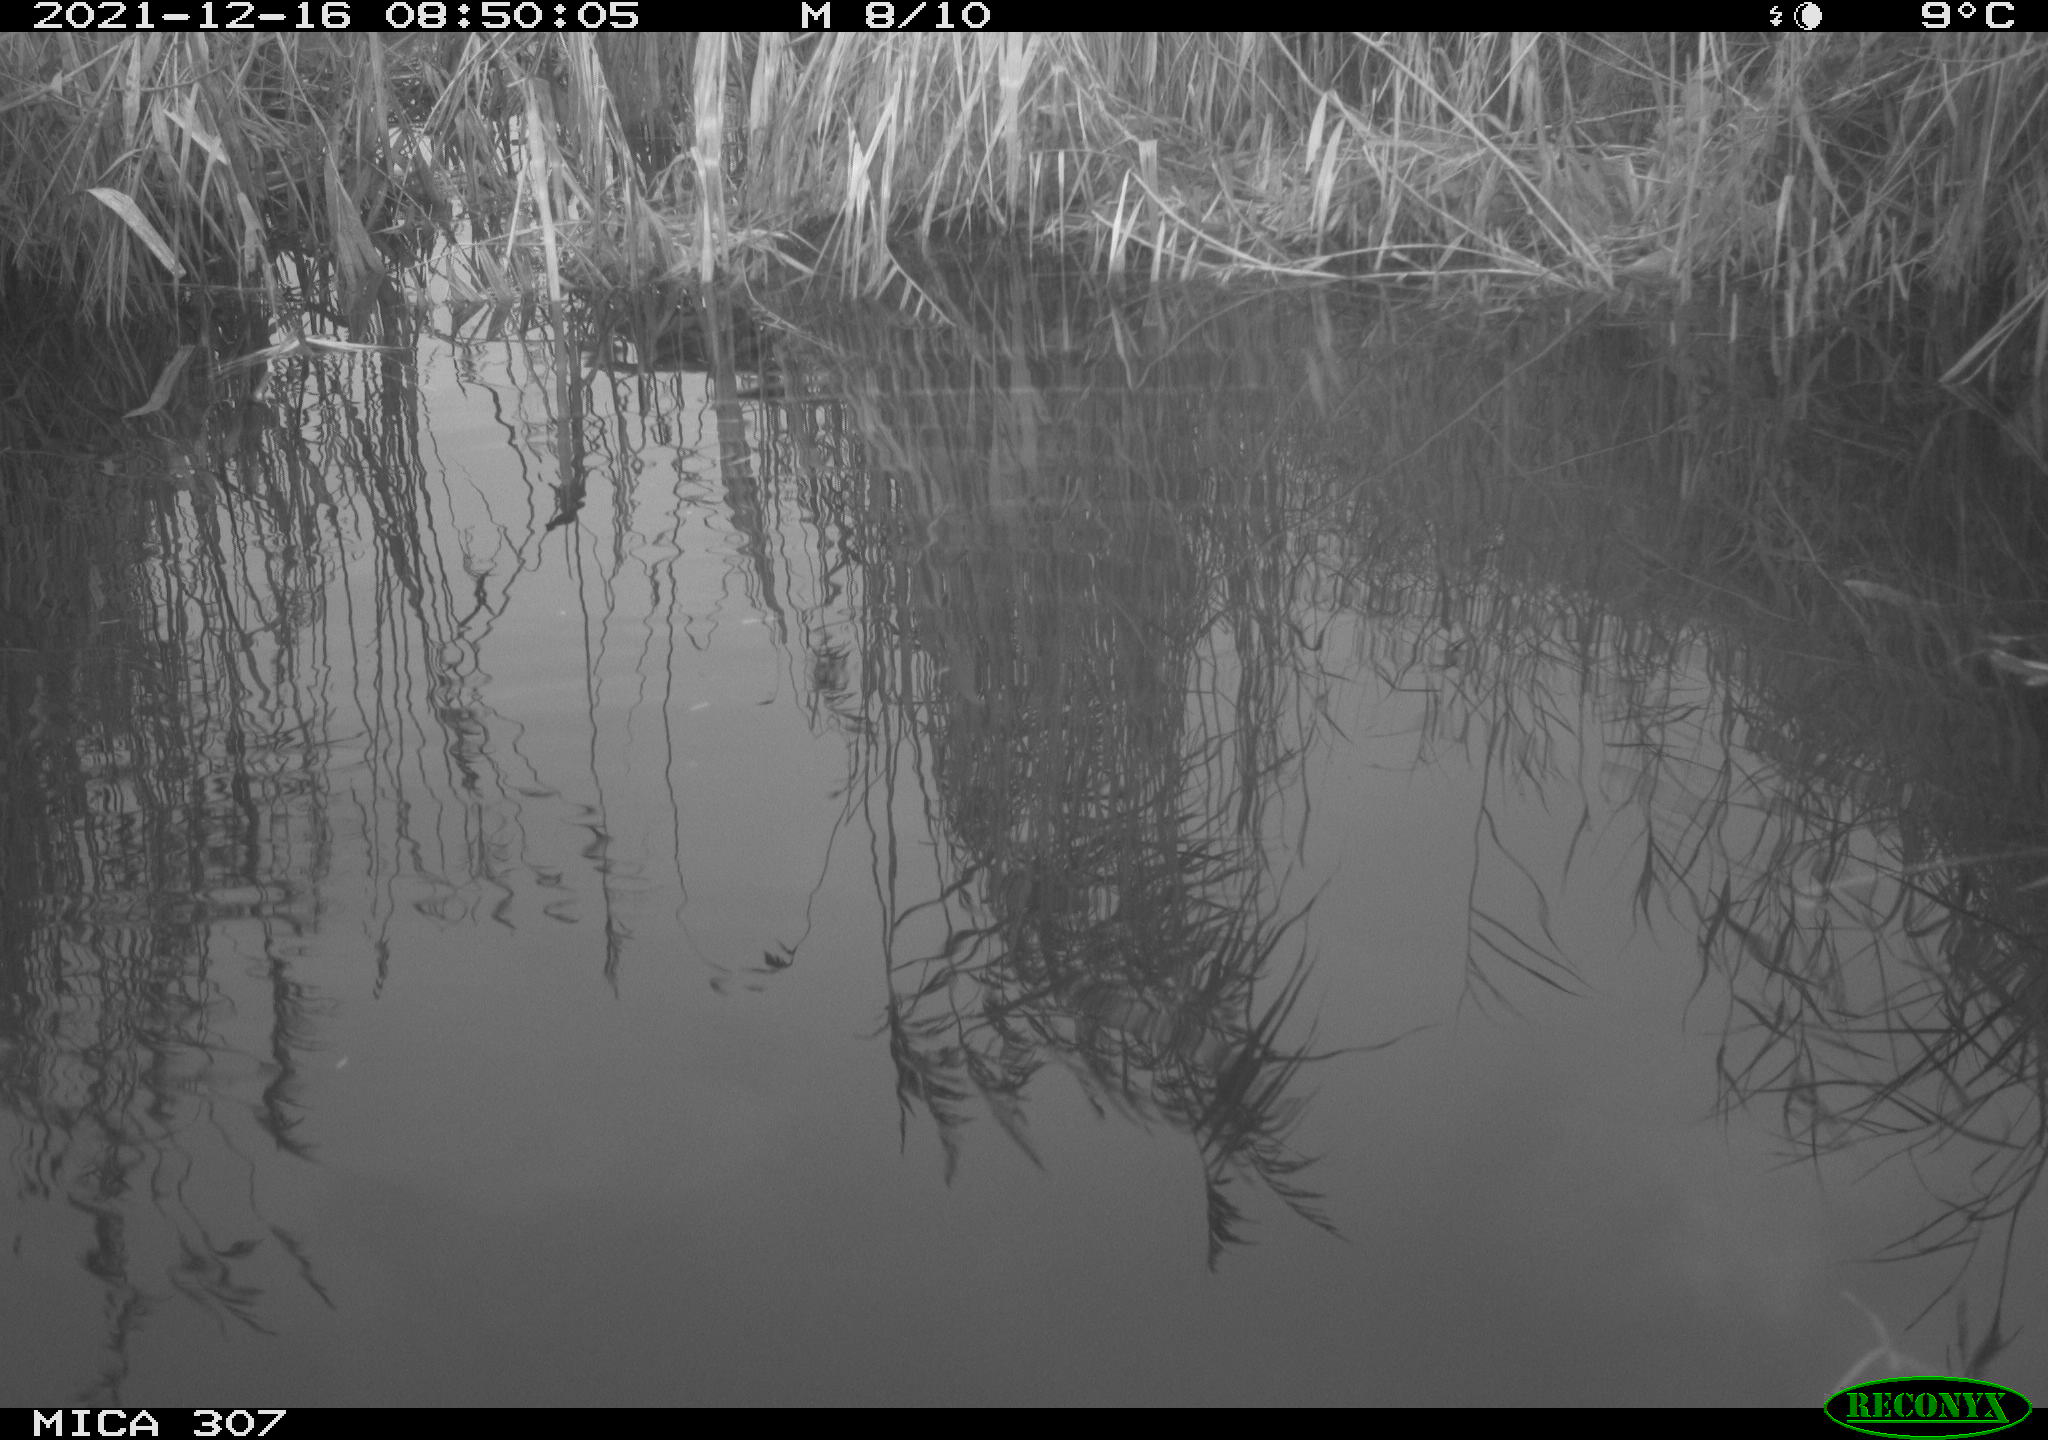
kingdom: Animalia
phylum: Chordata
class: Aves
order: Gruiformes
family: Rallidae
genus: Fulica
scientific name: Fulica atra
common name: Eurasian coot
